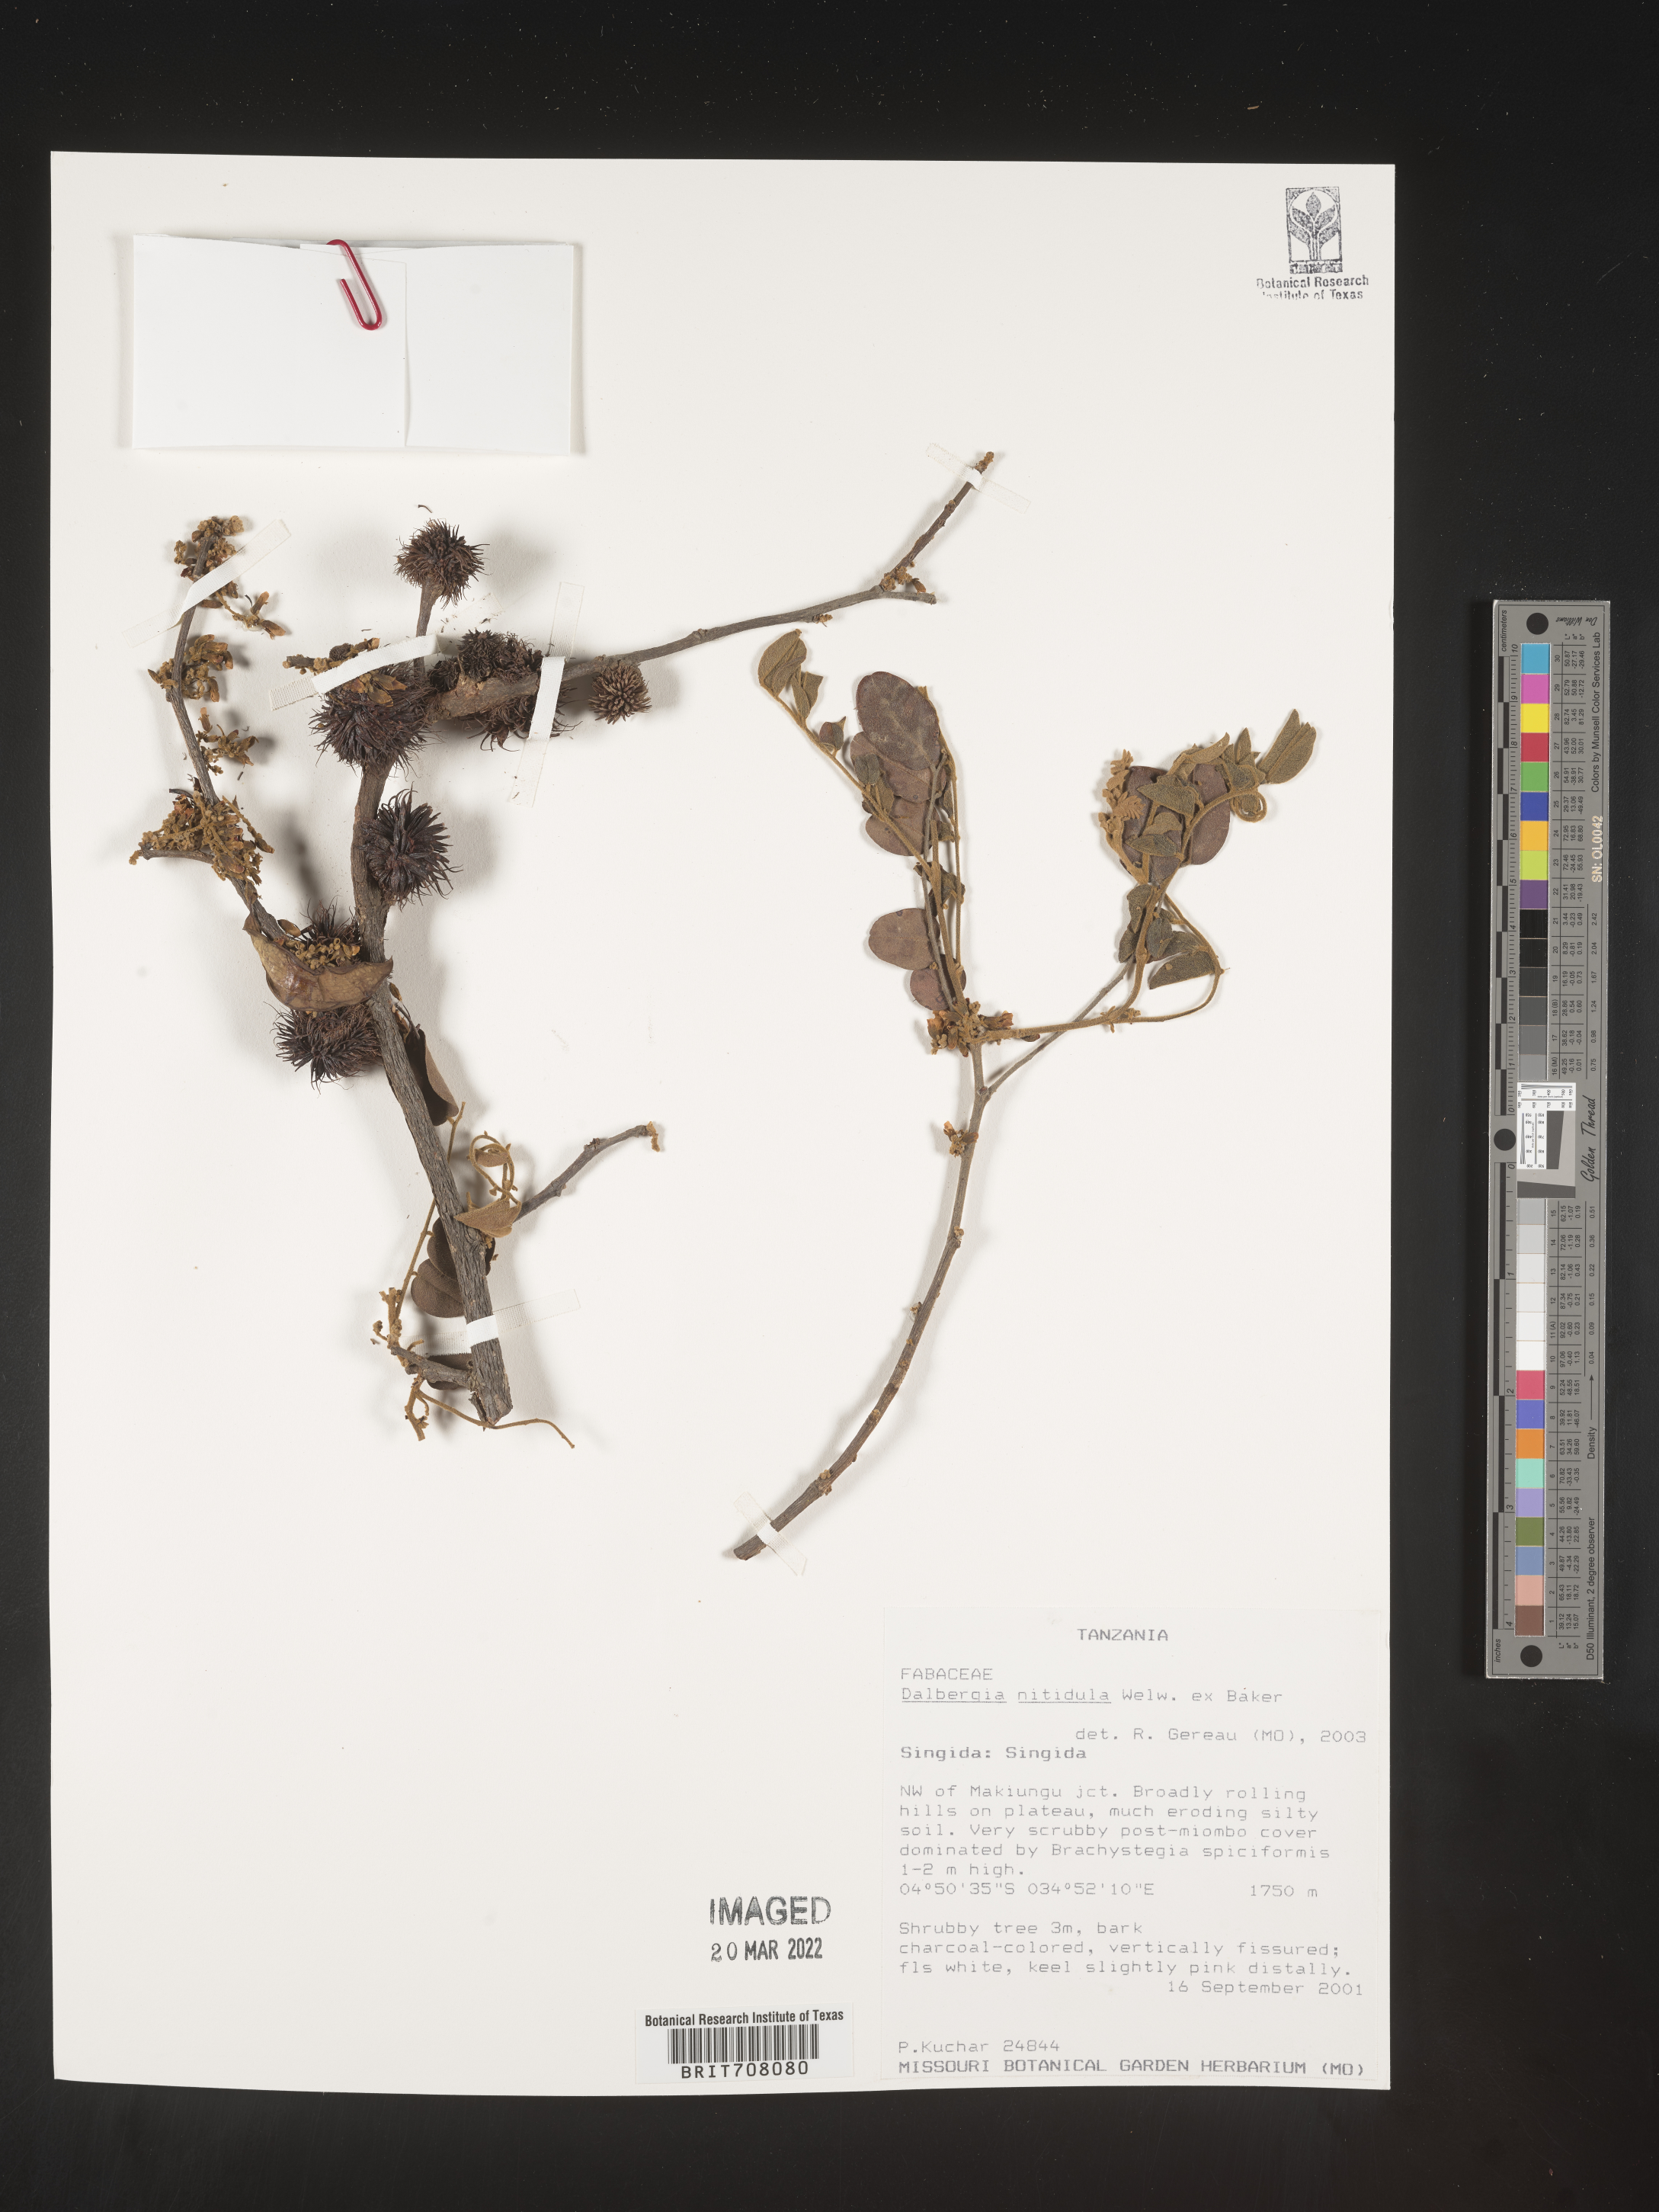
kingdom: Plantae
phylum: Tracheophyta
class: Magnoliopsida
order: Fabales
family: Fabaceae
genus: Dalbergia
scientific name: Dalbergia
